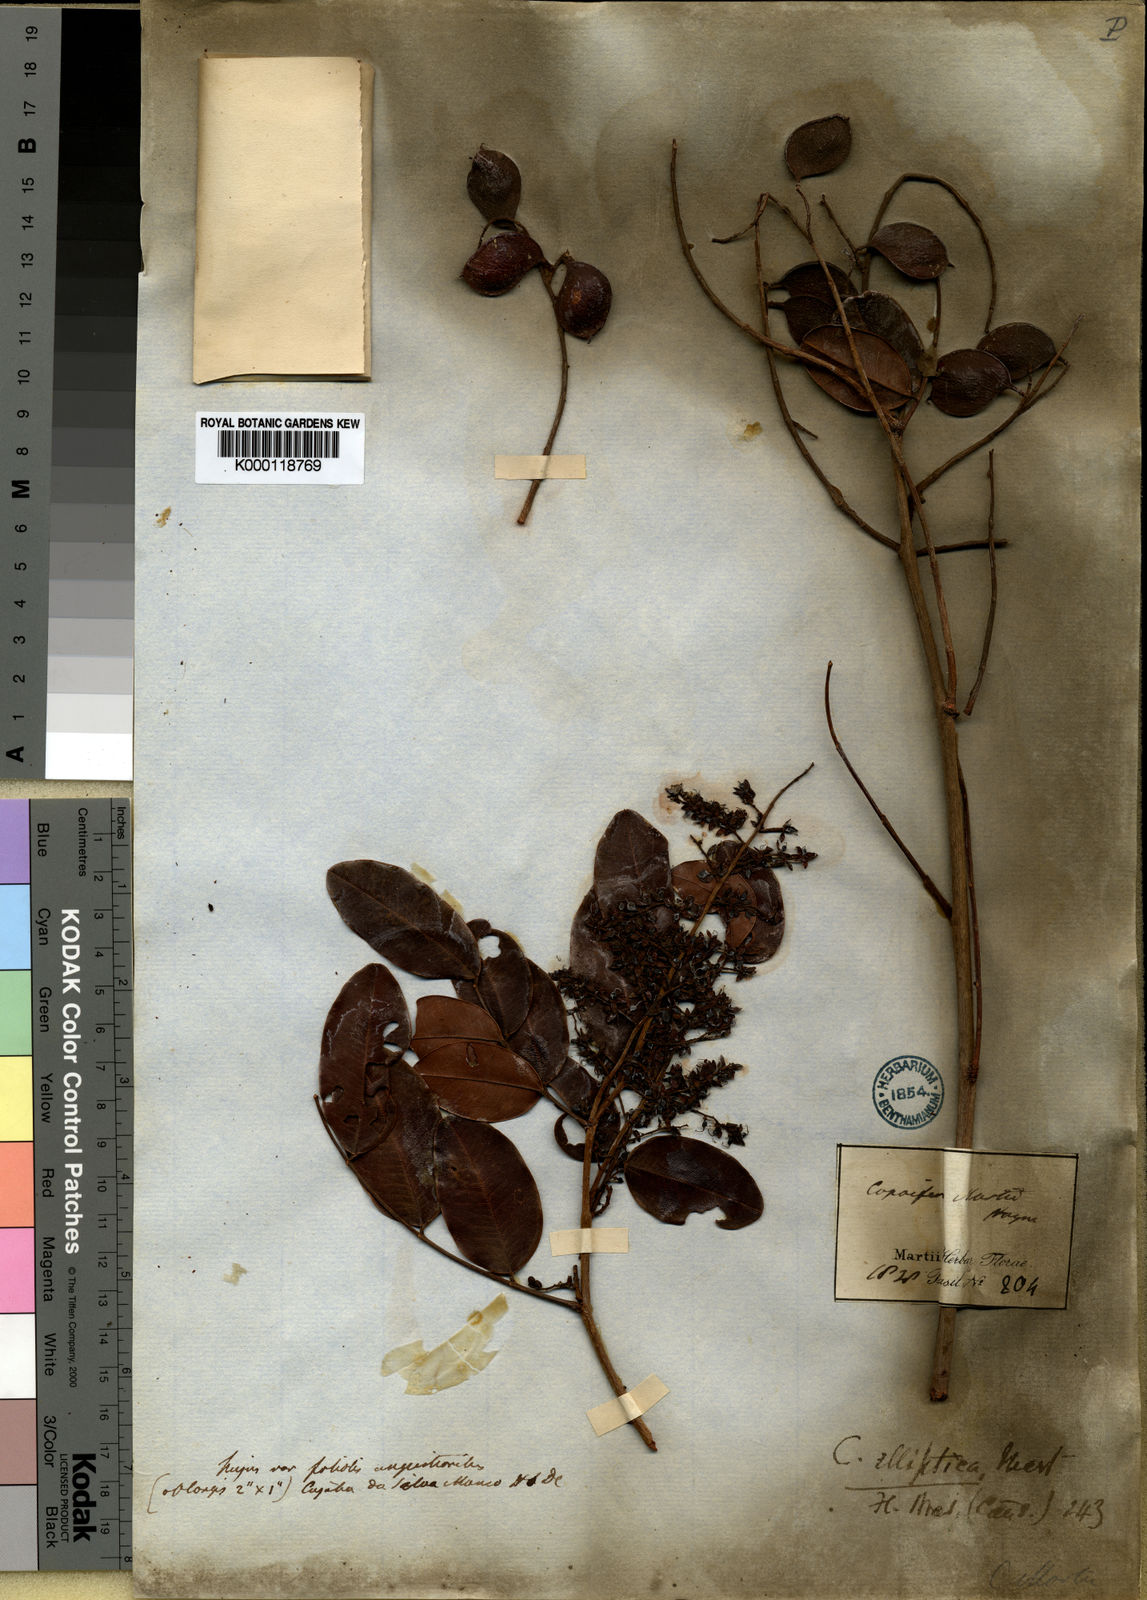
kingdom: Plantae
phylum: Tracheophyta
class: Magnoliopsida
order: Fabales
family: Fabaceae
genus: Copaifera
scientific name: Copaifera elliptica
